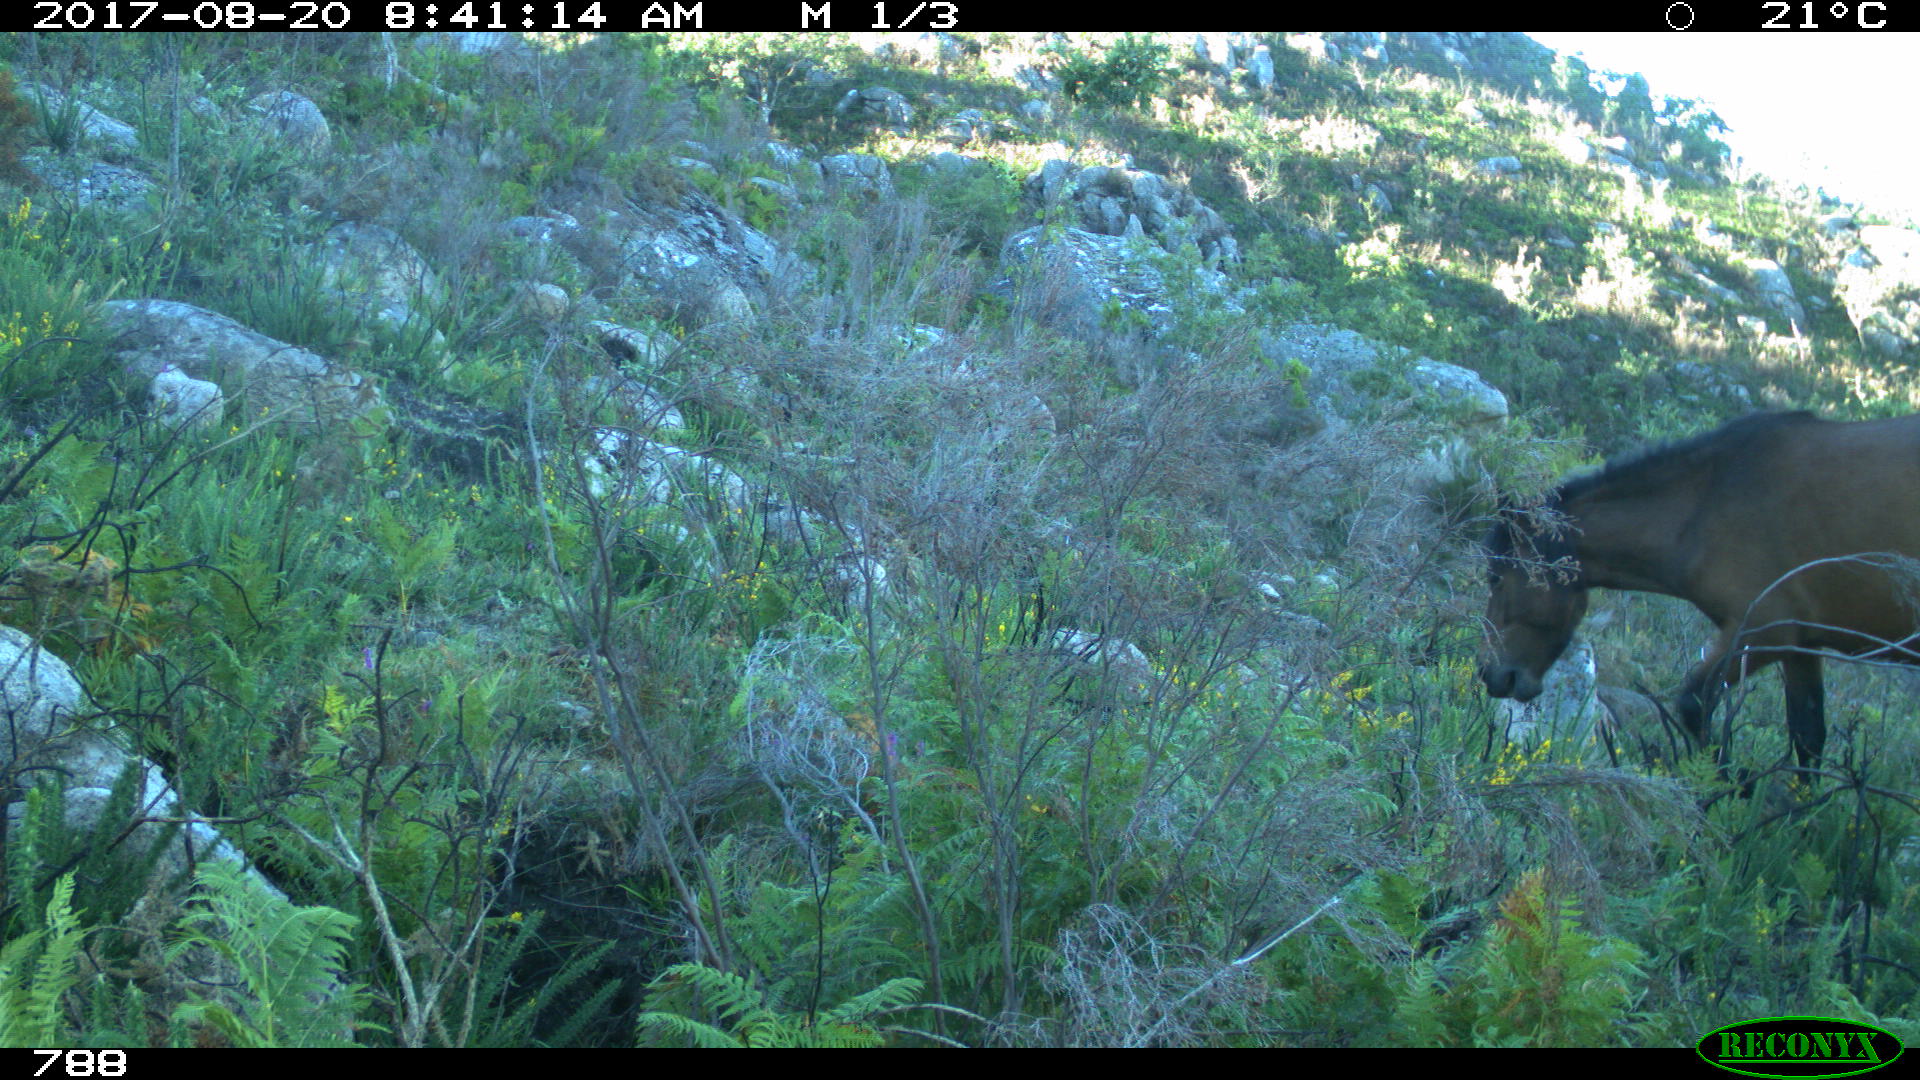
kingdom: Animalia
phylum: Chordata
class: Mammalia
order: Perissodactyla
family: Equidae
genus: Equus
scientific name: Equus caballus
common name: Horse
